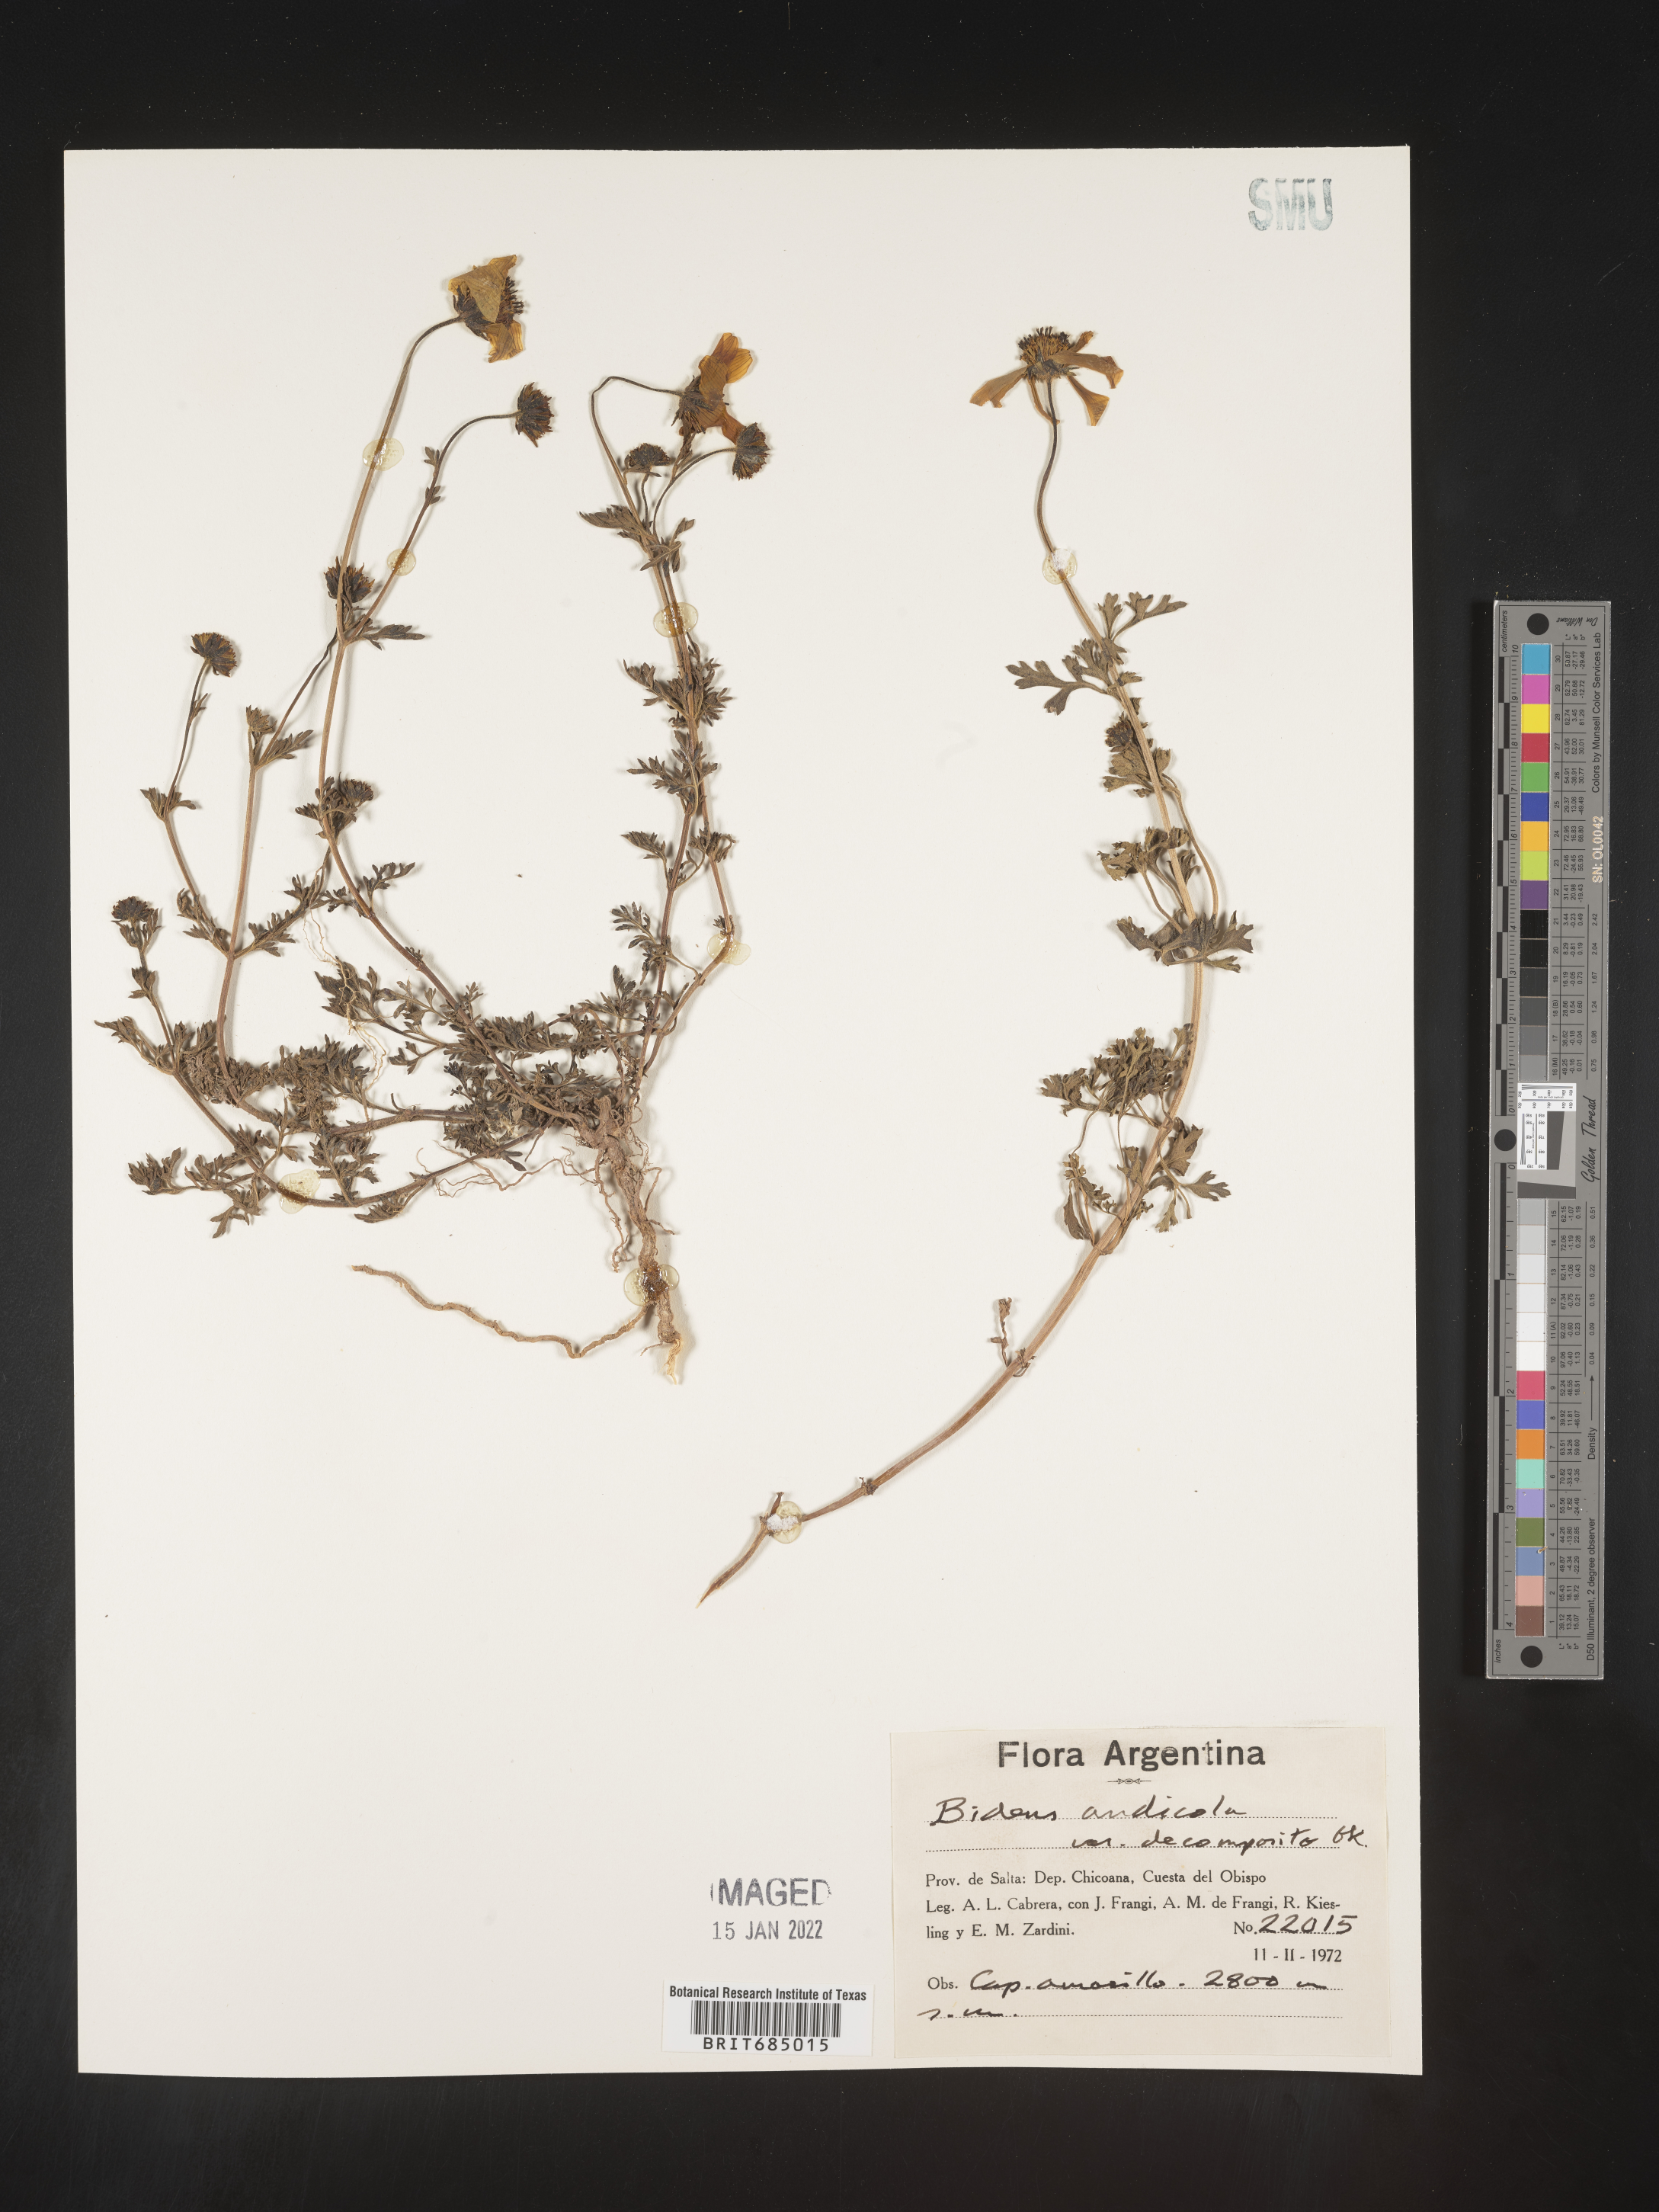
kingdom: Plantae
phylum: Tracheophyta
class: Magnoliopsida
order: Asterales
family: Asteraceae
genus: Bidens
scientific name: Bidens
